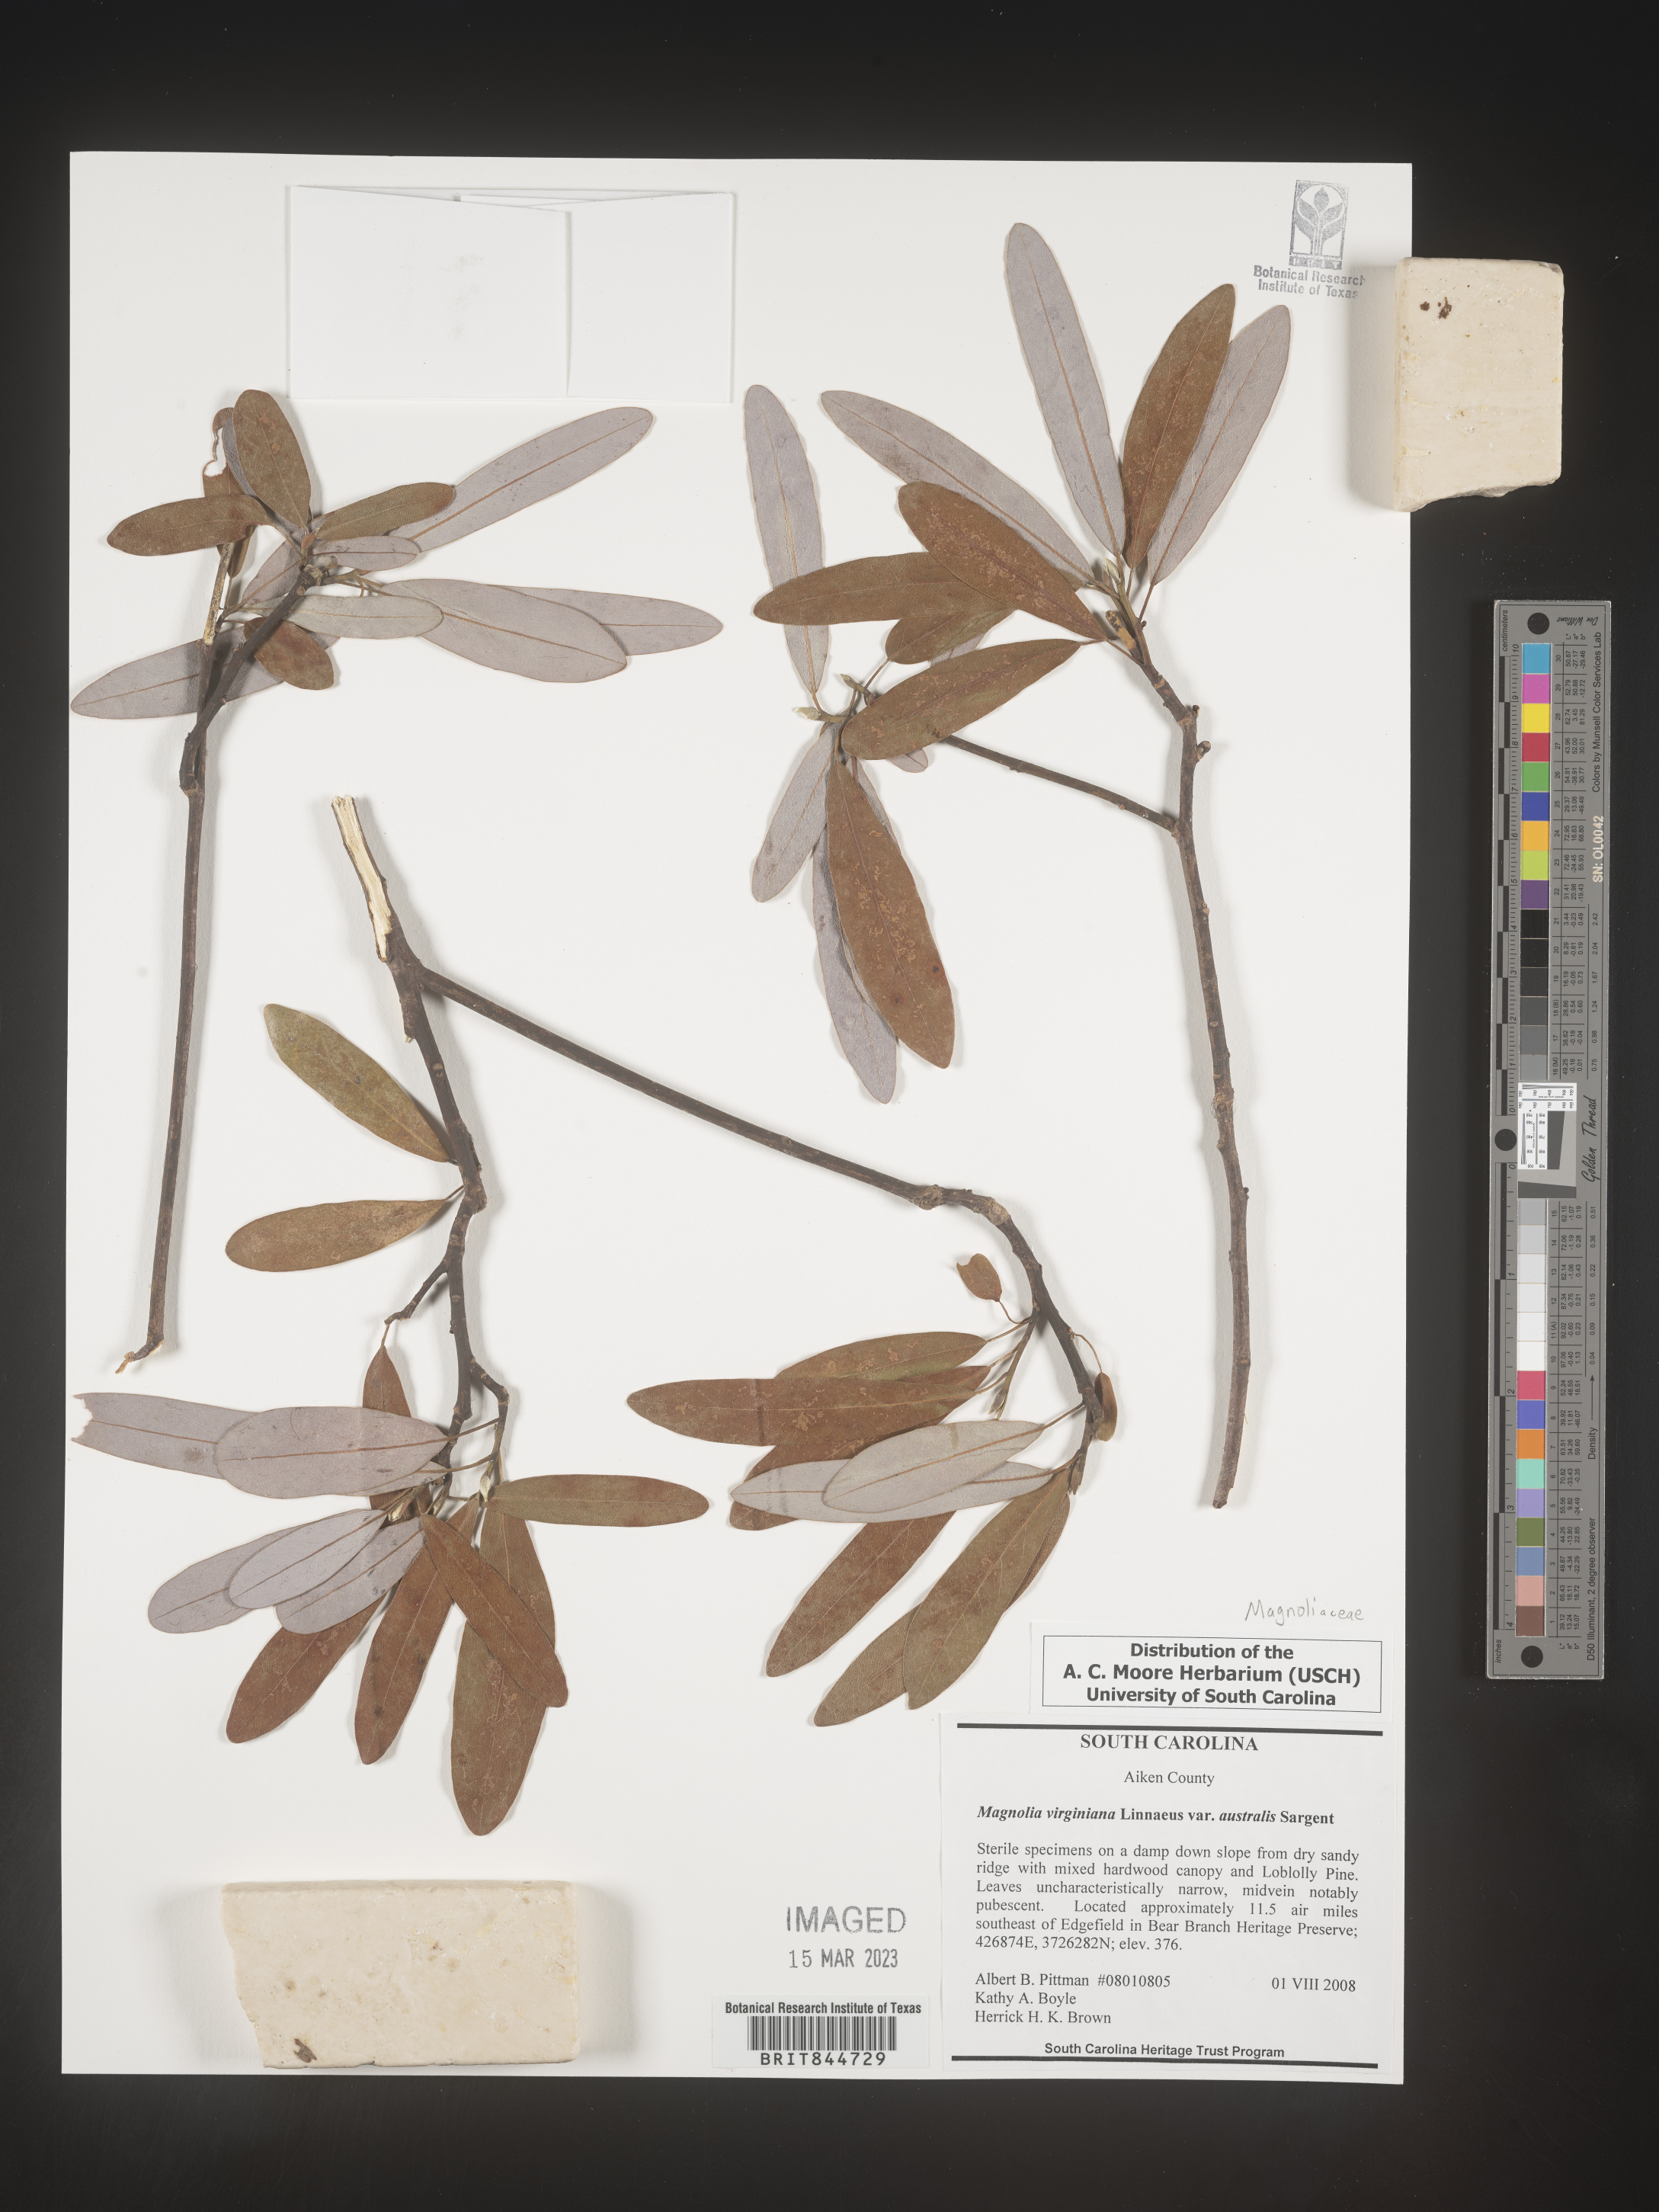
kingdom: Plantae
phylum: Tracheophyta
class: Magnoliopsida
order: Magnoliales
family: Magnoliaceae
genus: Magnolia
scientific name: Magnolia virginiana
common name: Swamp bay
